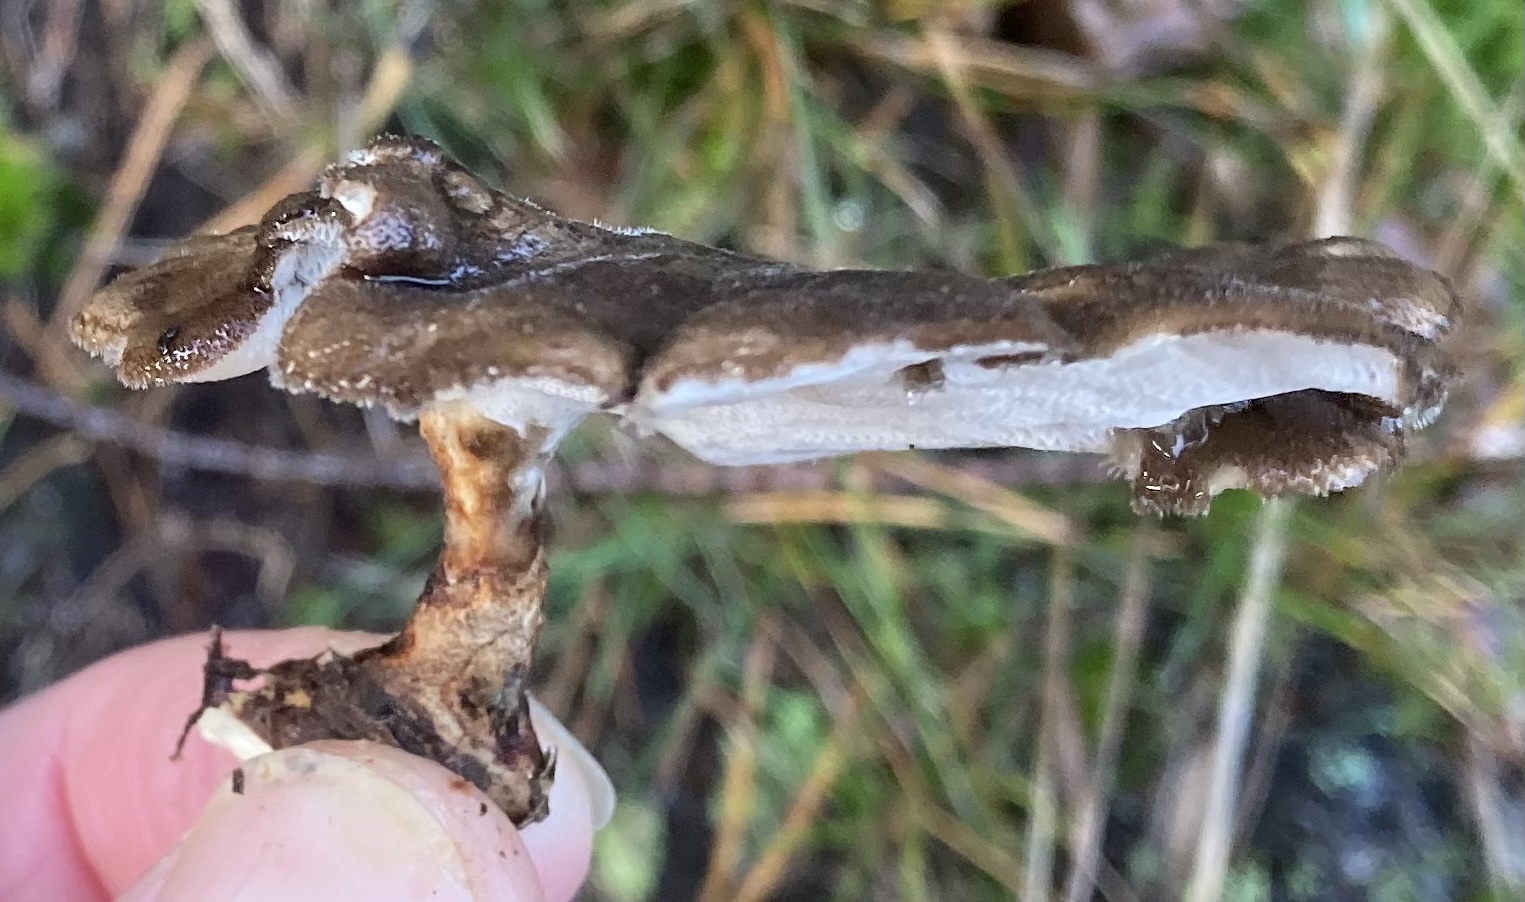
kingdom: Fungi
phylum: Basidiomycota
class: Agaricomycetes
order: Polyporales
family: Polyporaceae
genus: Lentinus
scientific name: Lentinus brumalis
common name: vinter-stilkporesvamp
